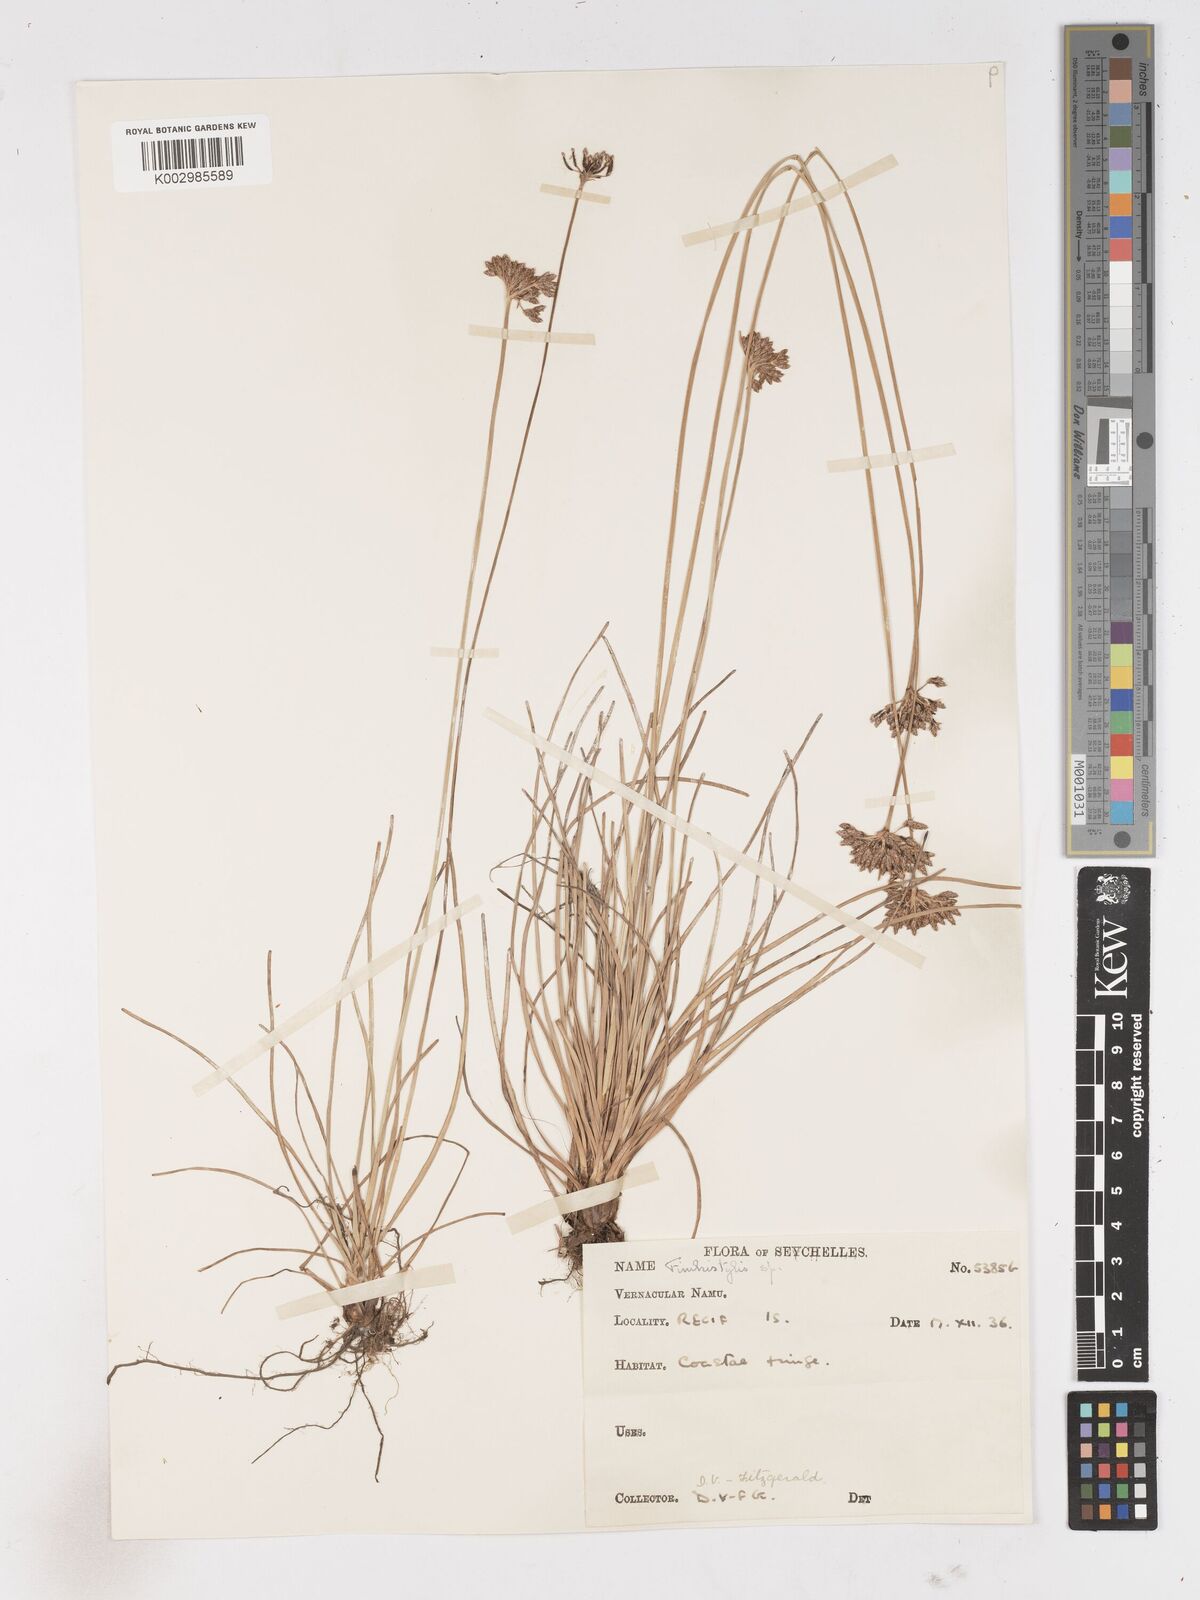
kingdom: Plantae
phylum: Tracheophyta
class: Liliopsida
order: Poales
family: Cyperaceae
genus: Fimbristylis
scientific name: Fimbristylis cymosa
